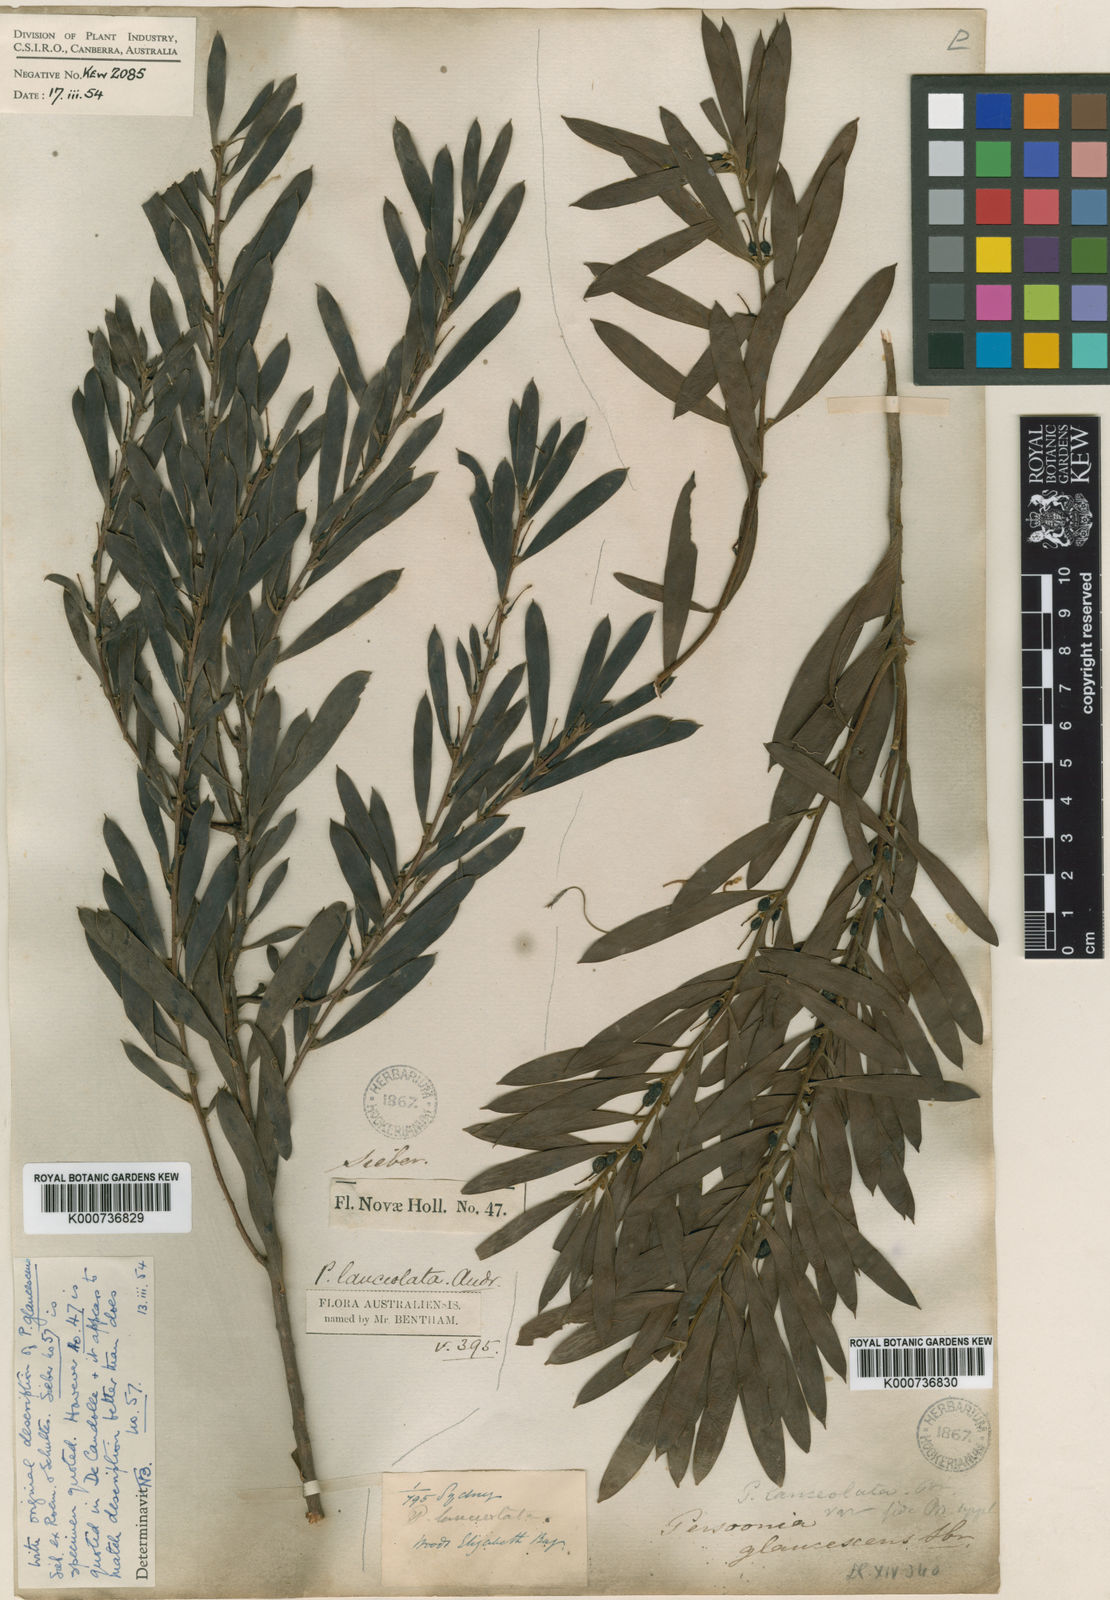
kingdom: Plantae
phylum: Tracheophyta
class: Magnoliopsida
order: Proteales
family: Proteaceae
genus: Persoonia
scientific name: Persoonia lanceolata
